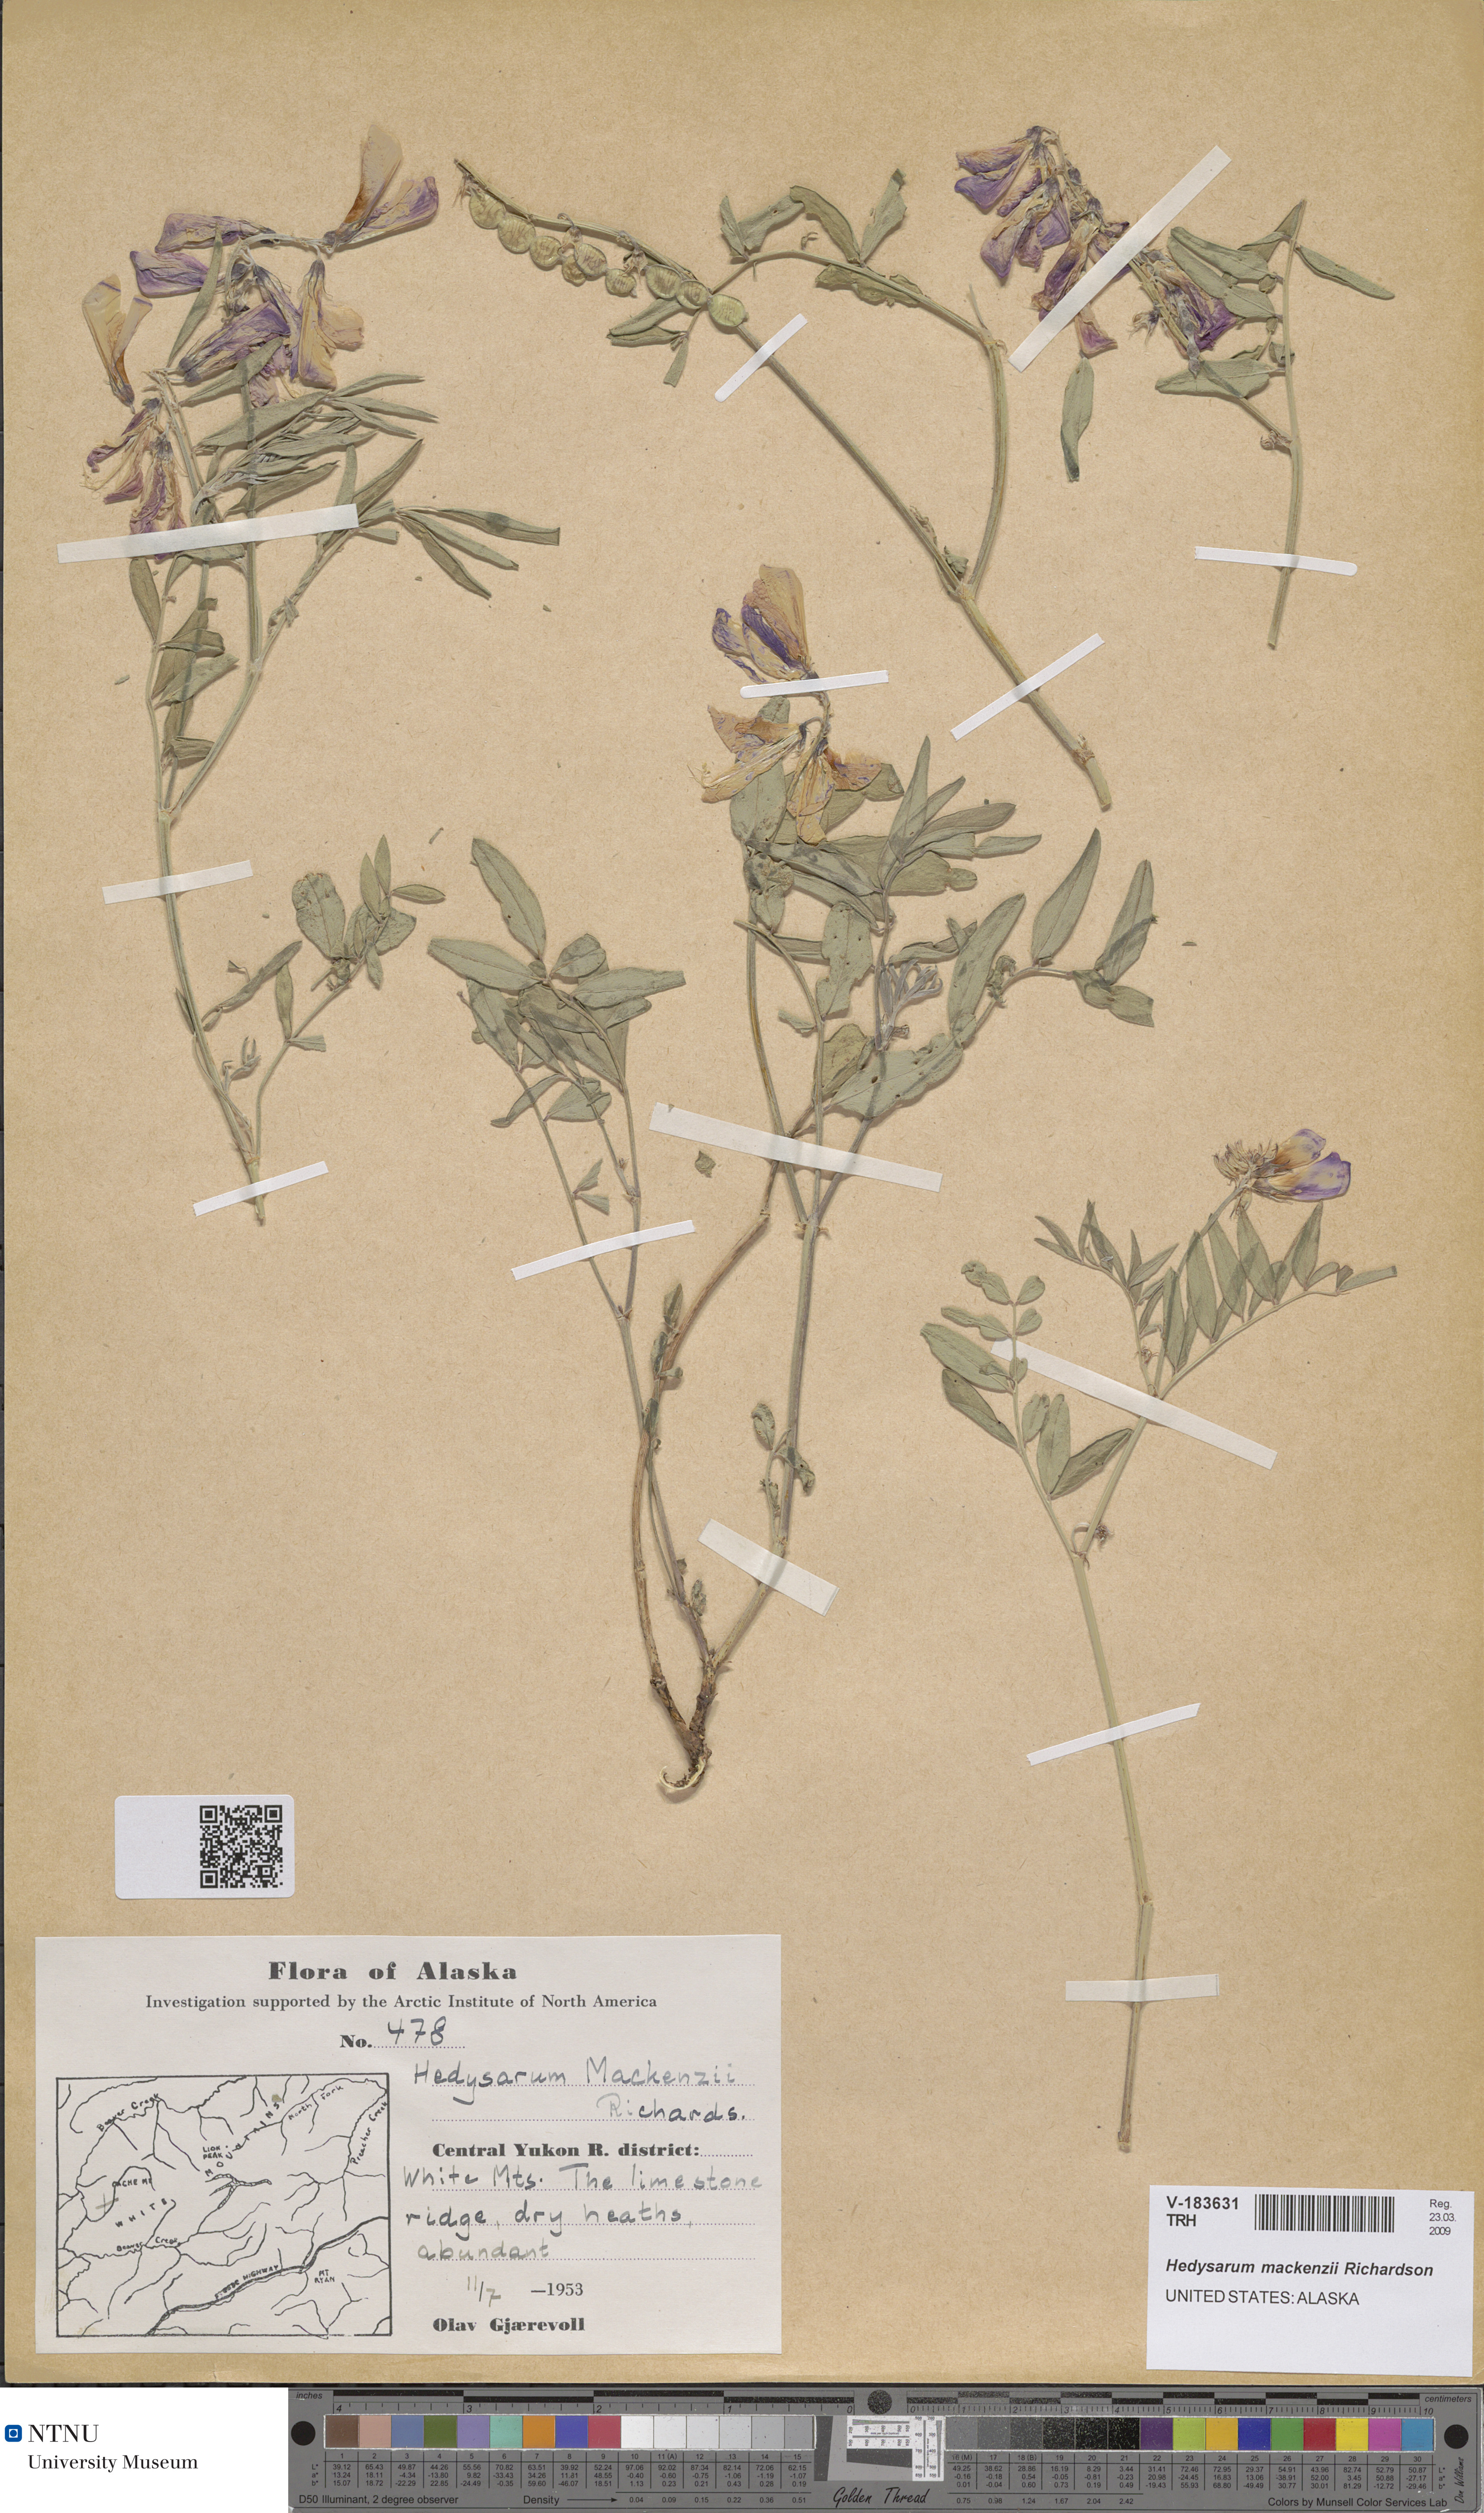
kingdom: Plantae
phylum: Tracheophyta
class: Magnoliopsida
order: Fabales
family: Fabaceae
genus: Hedysarum
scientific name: Hedysarum boreale
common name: Northern sweet-vetch
